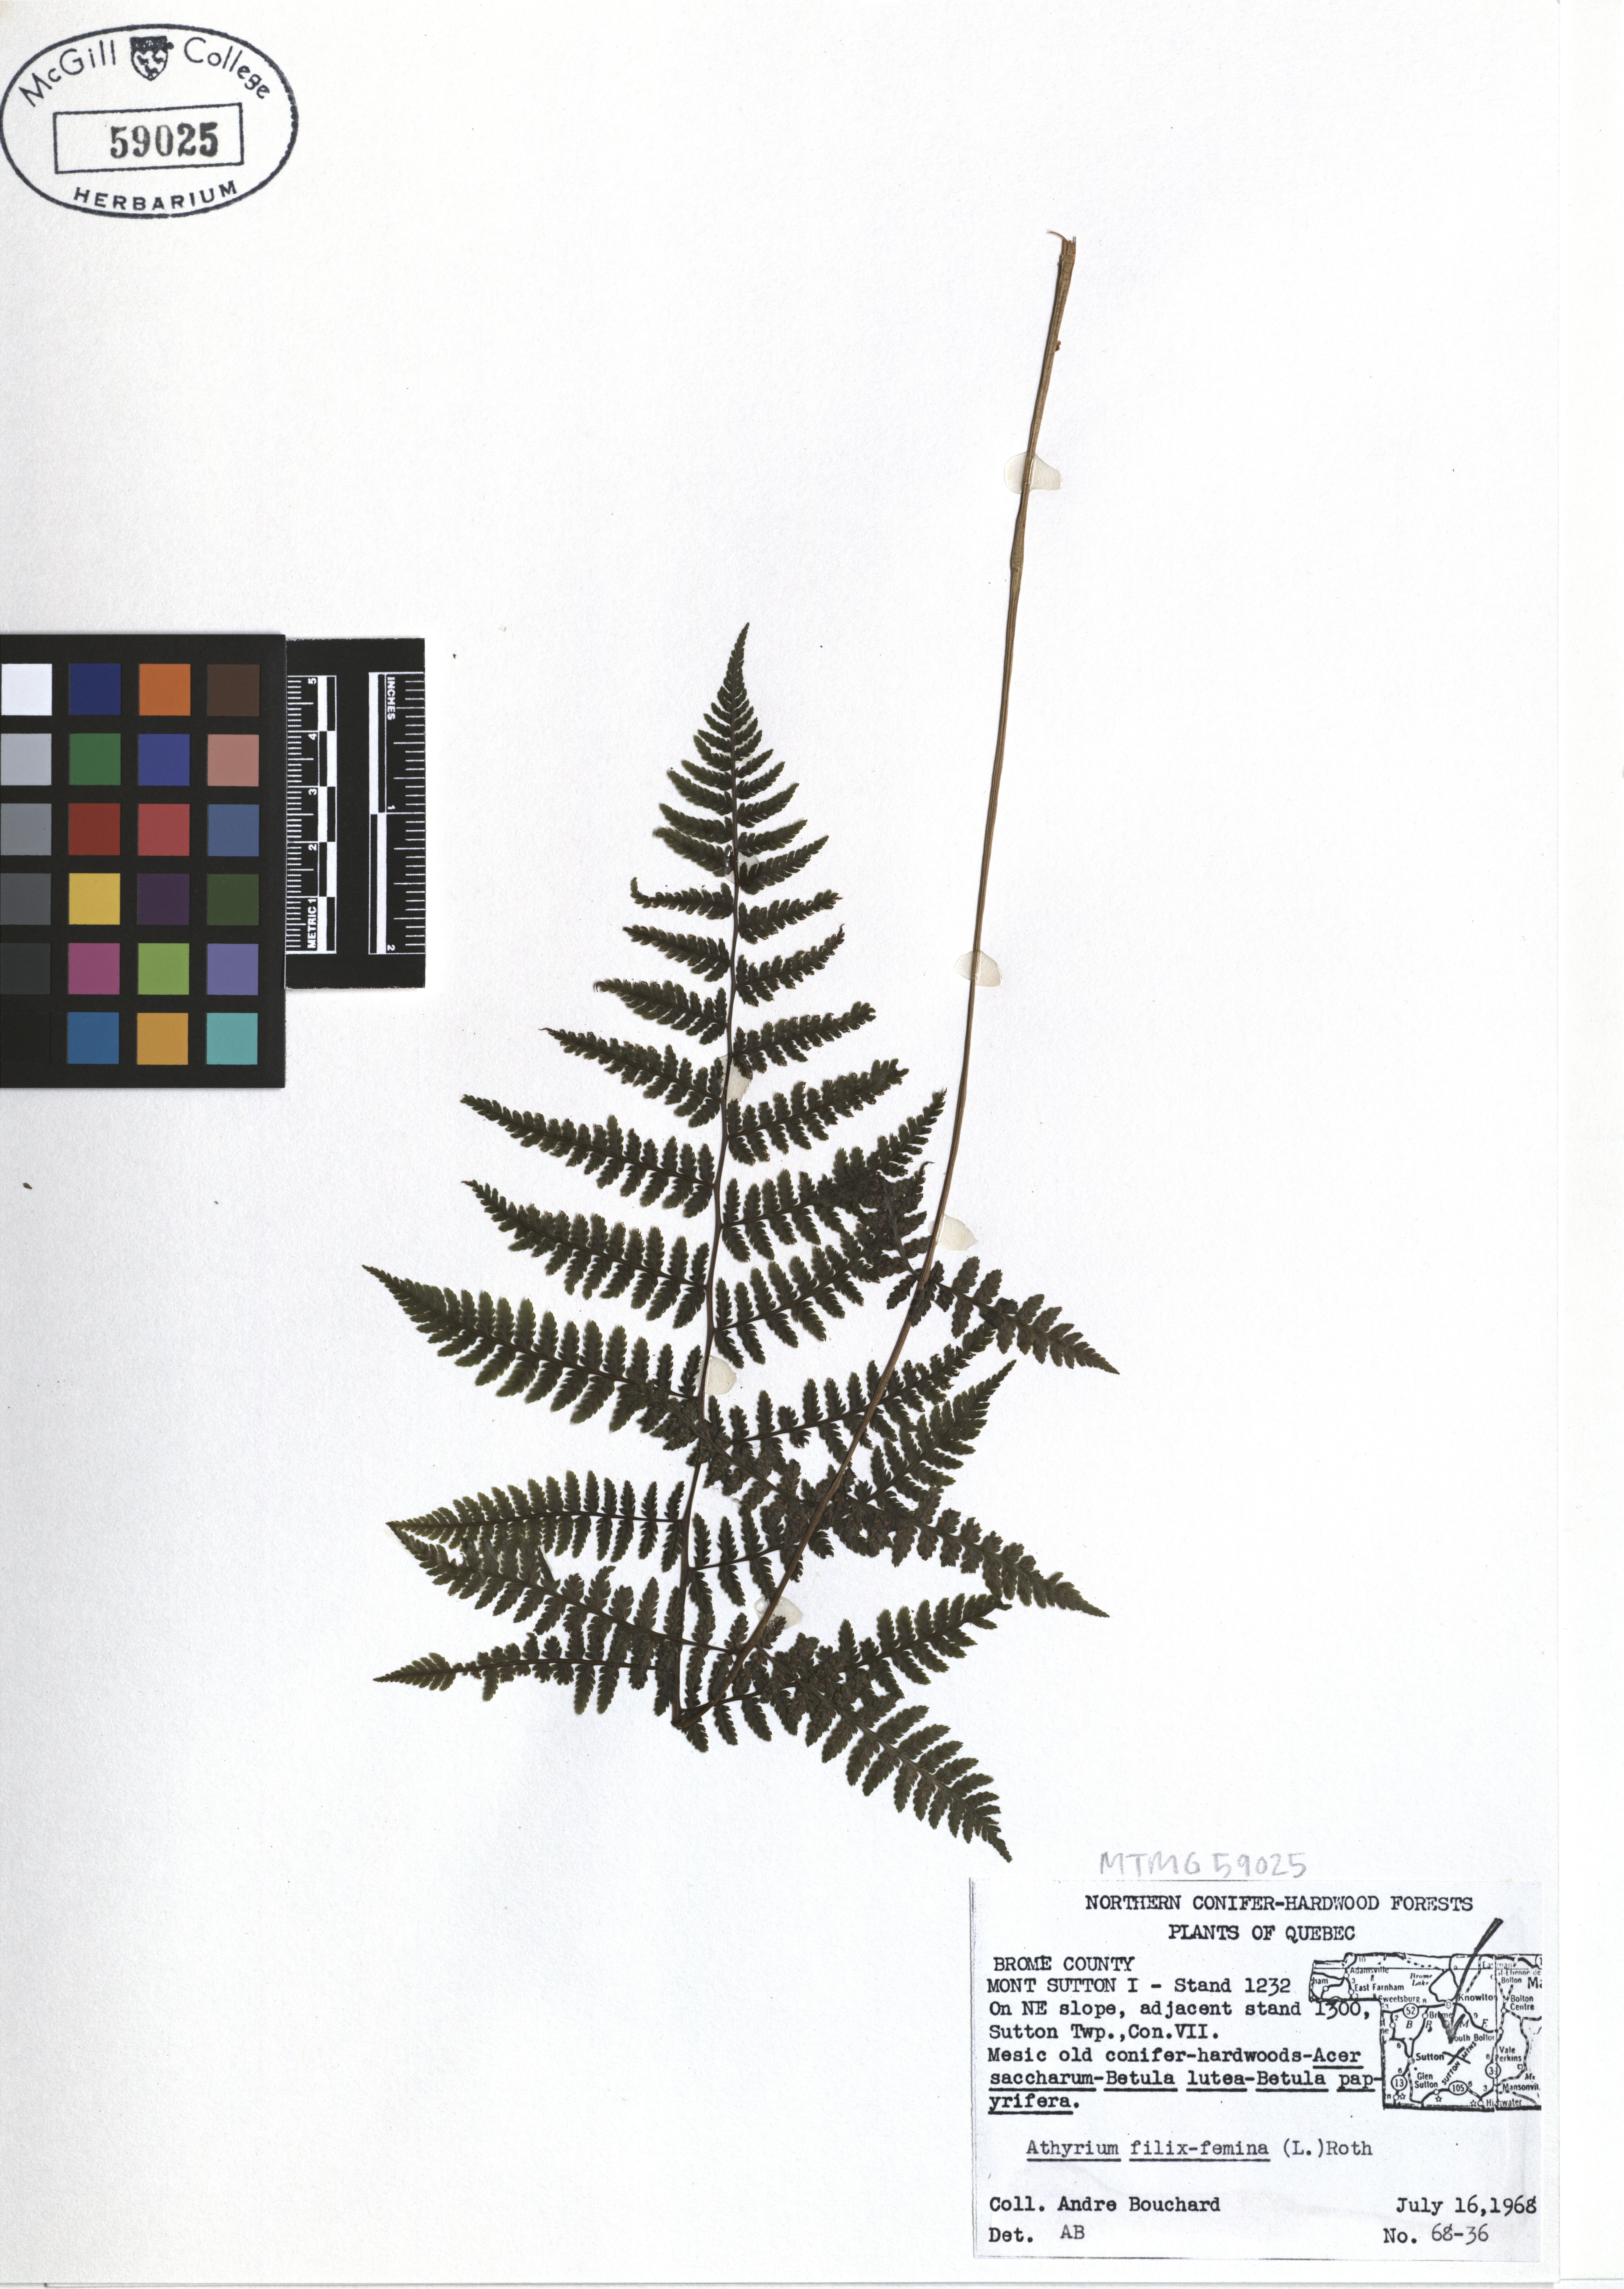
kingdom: Plantae
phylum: Tracheophyta
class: Polypodiopsida
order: Polypodiales
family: Athyriaceae
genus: Athyrium
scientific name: Athyrium filix-femina
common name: Lady fern
